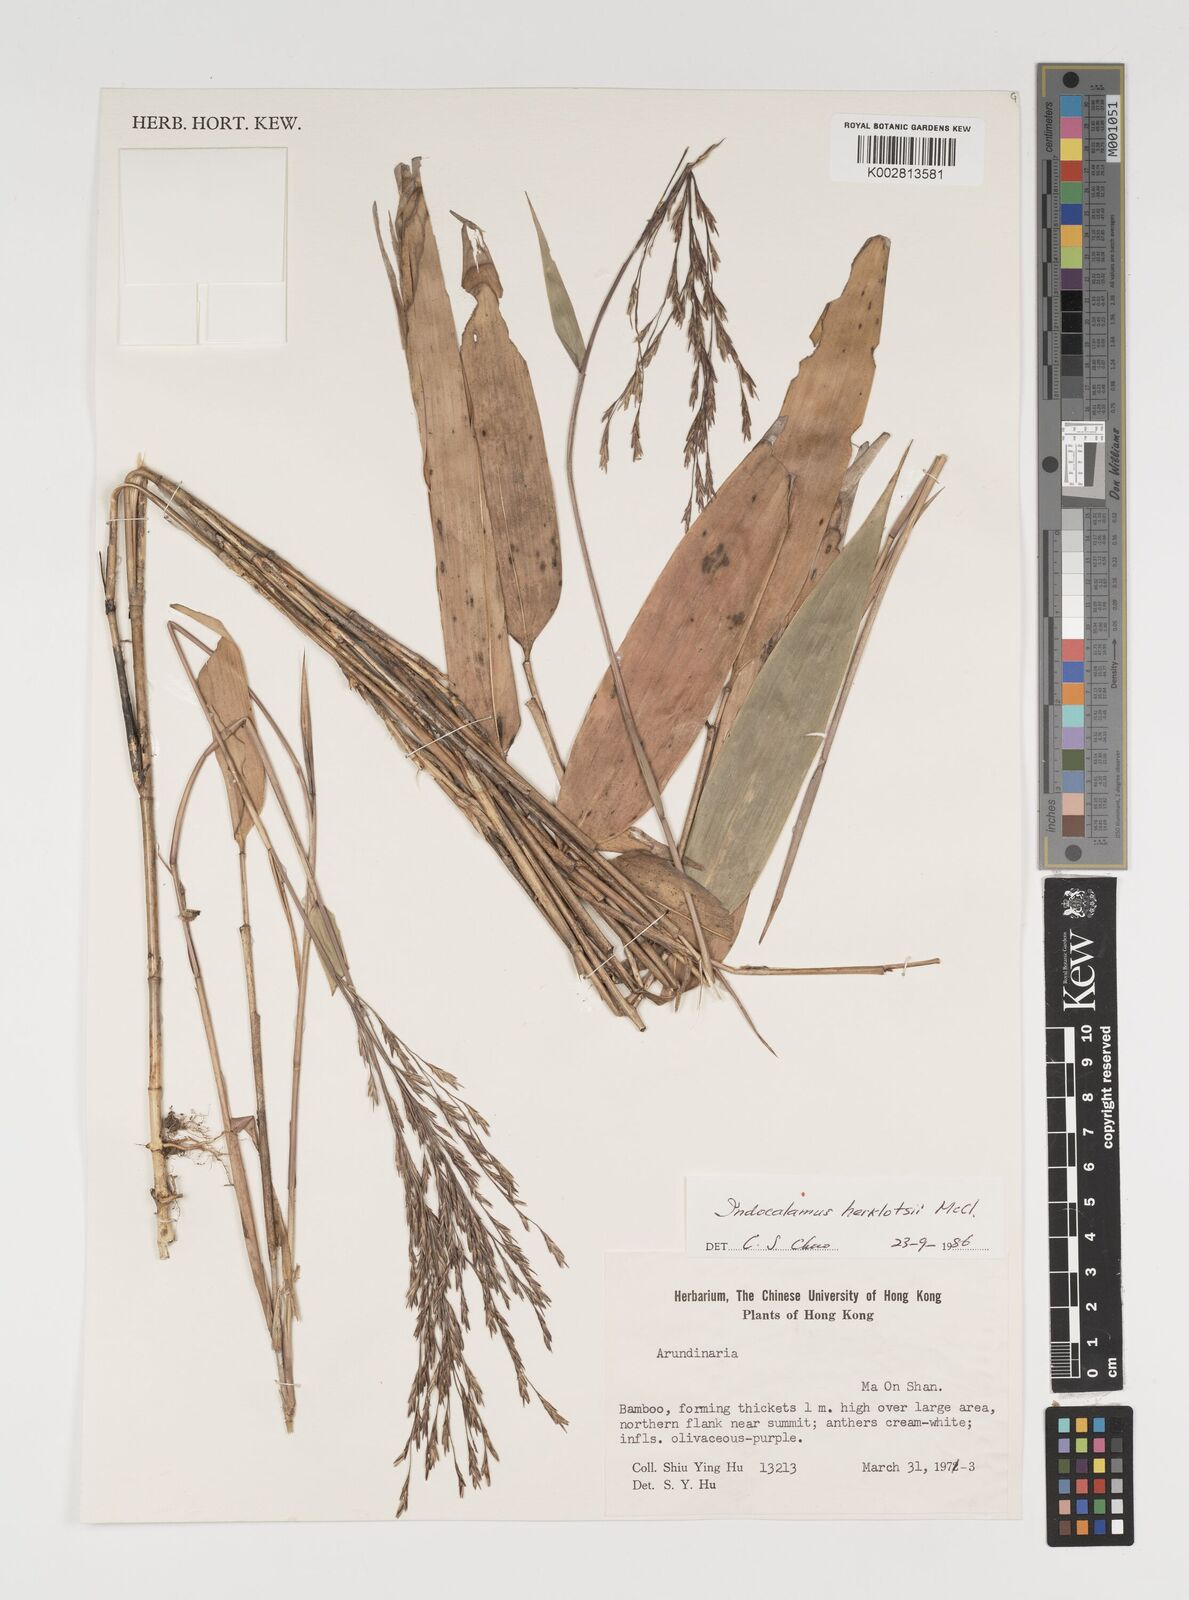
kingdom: Plantae
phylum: Tracheophyta
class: Liliopsida
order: Poales
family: Poaceae
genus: Indocalamus
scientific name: Indocalamus herklotsii
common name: Herklot's cane
